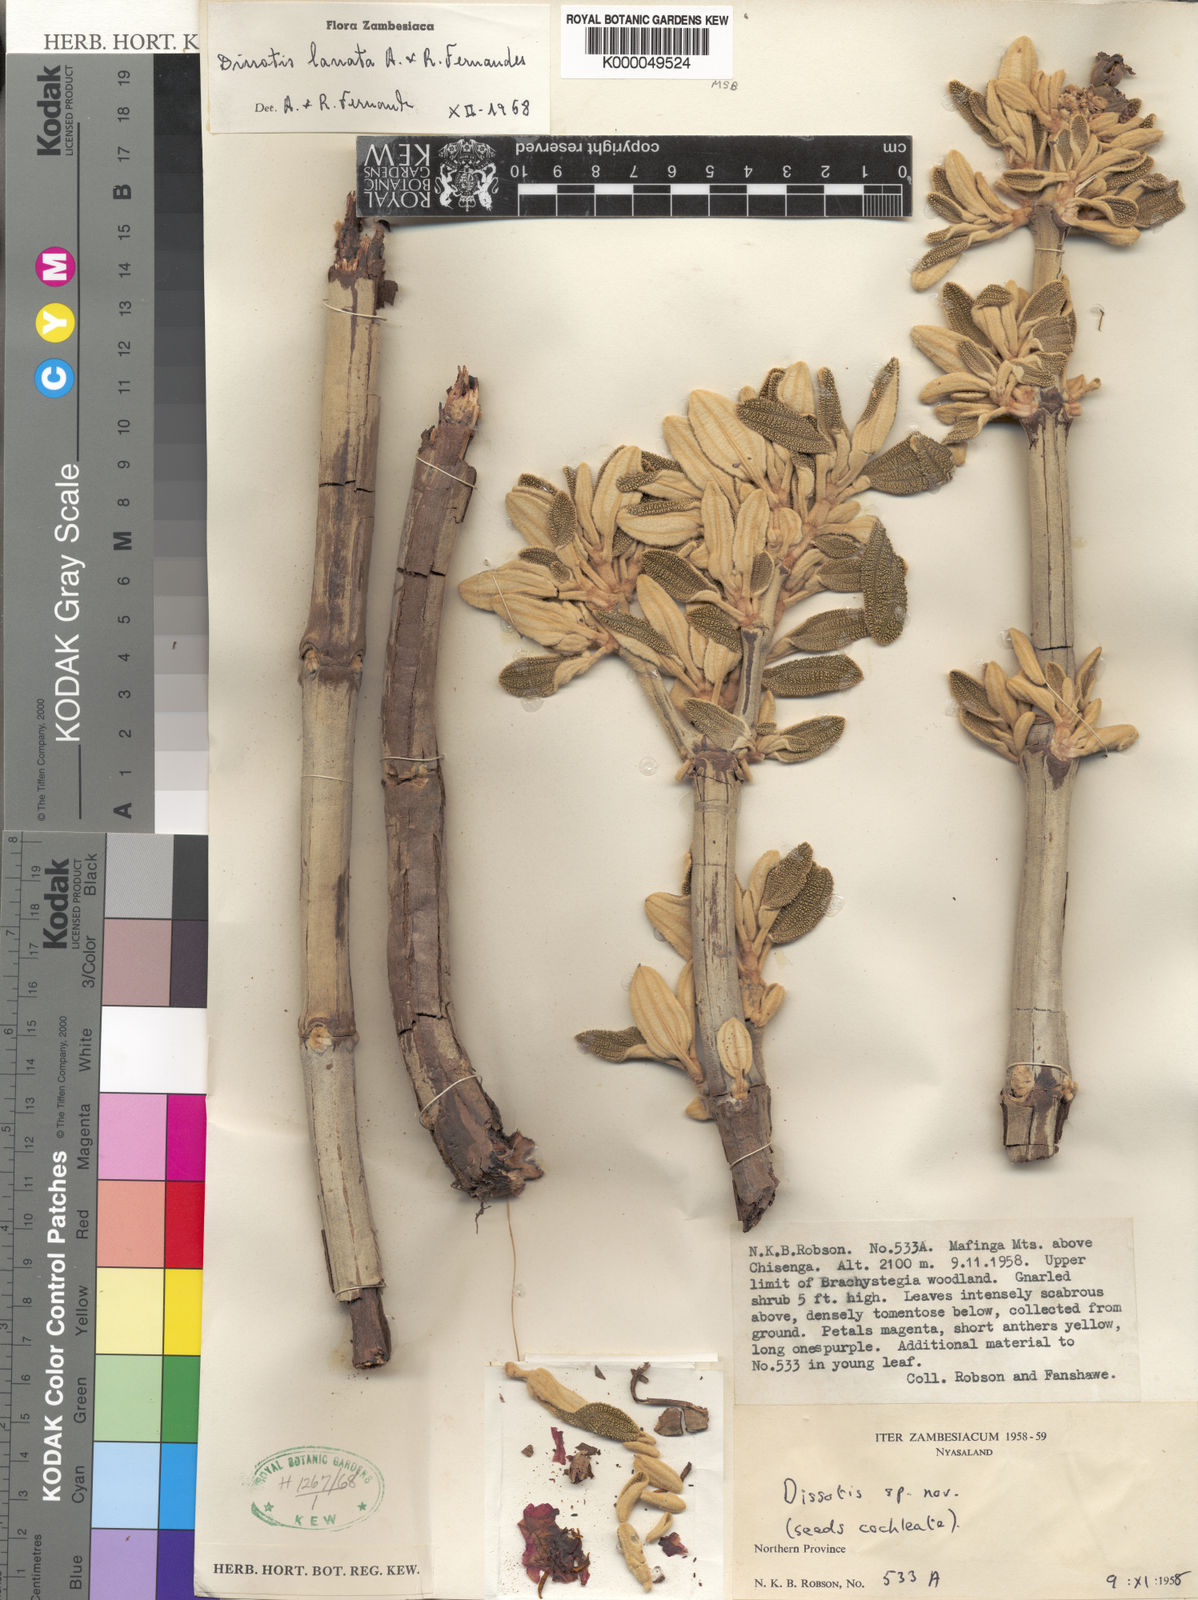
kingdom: Plantae
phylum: Tracheophyta
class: Magnoliopsida
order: Myrtales
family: Melastomataceae
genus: Dissotidendron
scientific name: Dissotidendron lanatum
